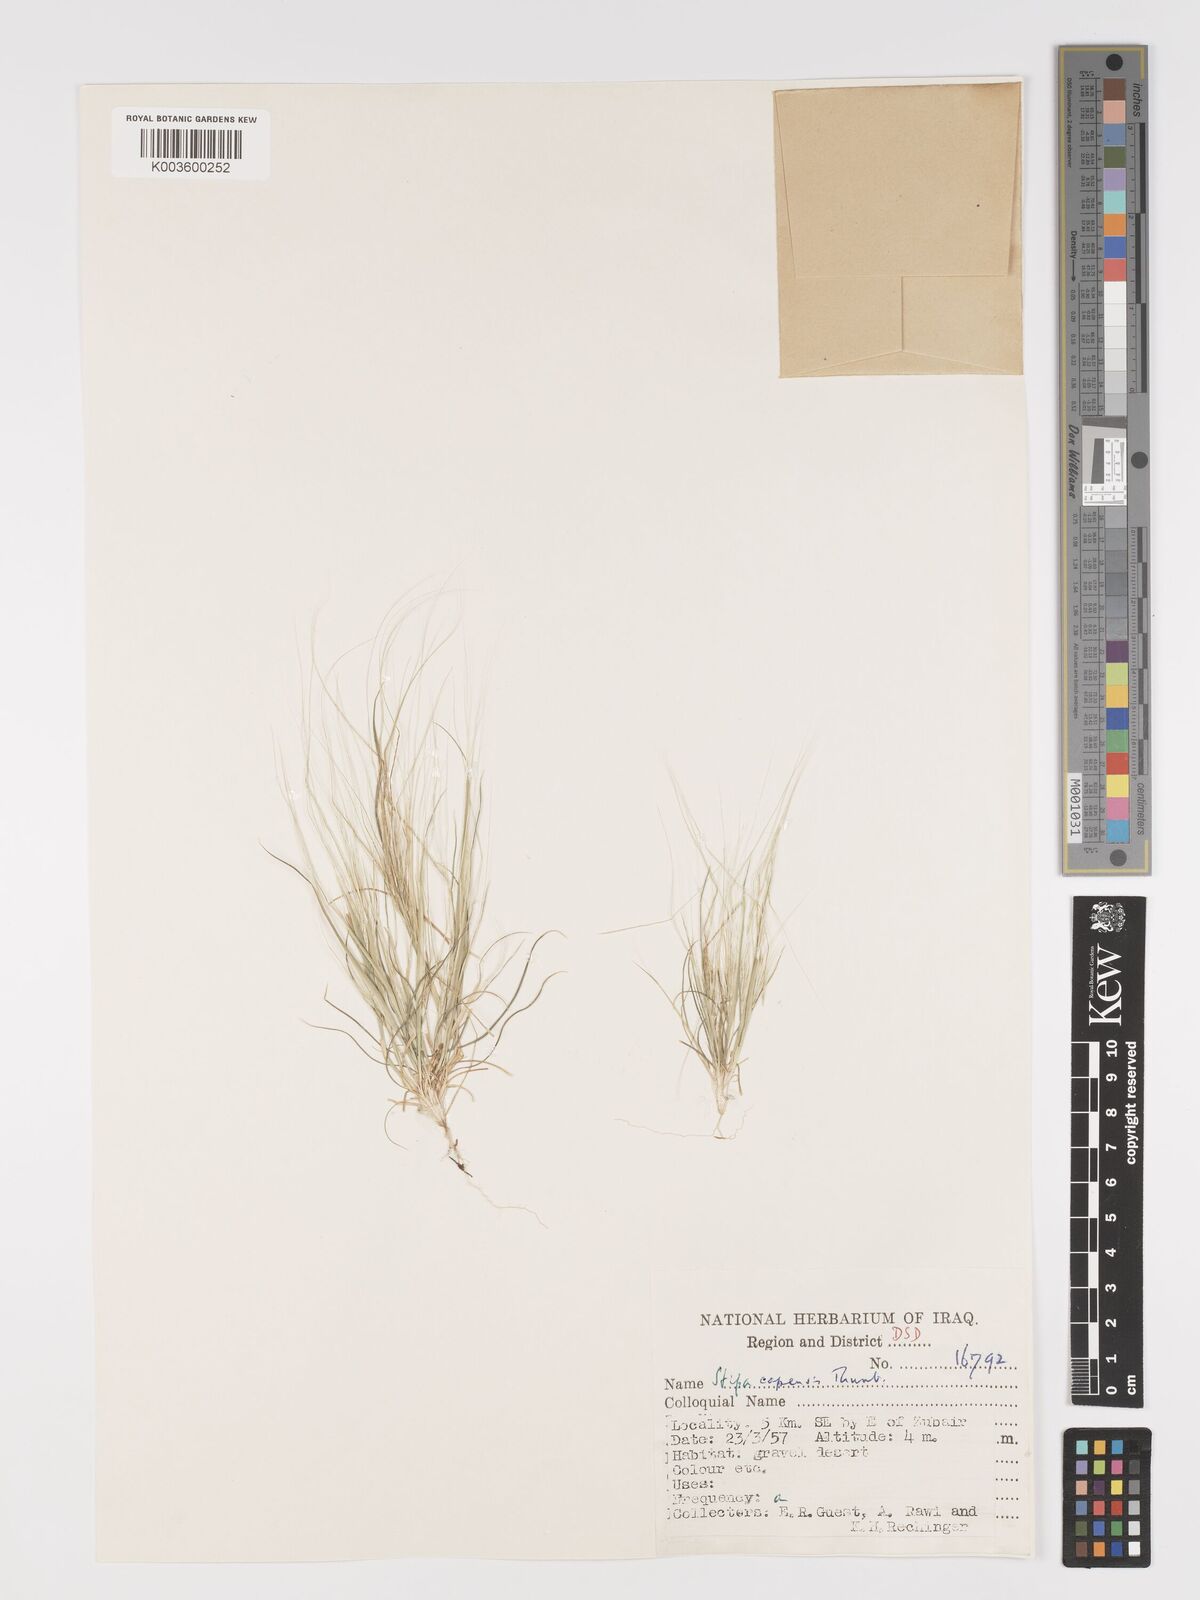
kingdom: Plantae
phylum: Tracheophyta
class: Liliopsida
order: Poales
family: Poaceae
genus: Stipellula
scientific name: Stipellula capensis
